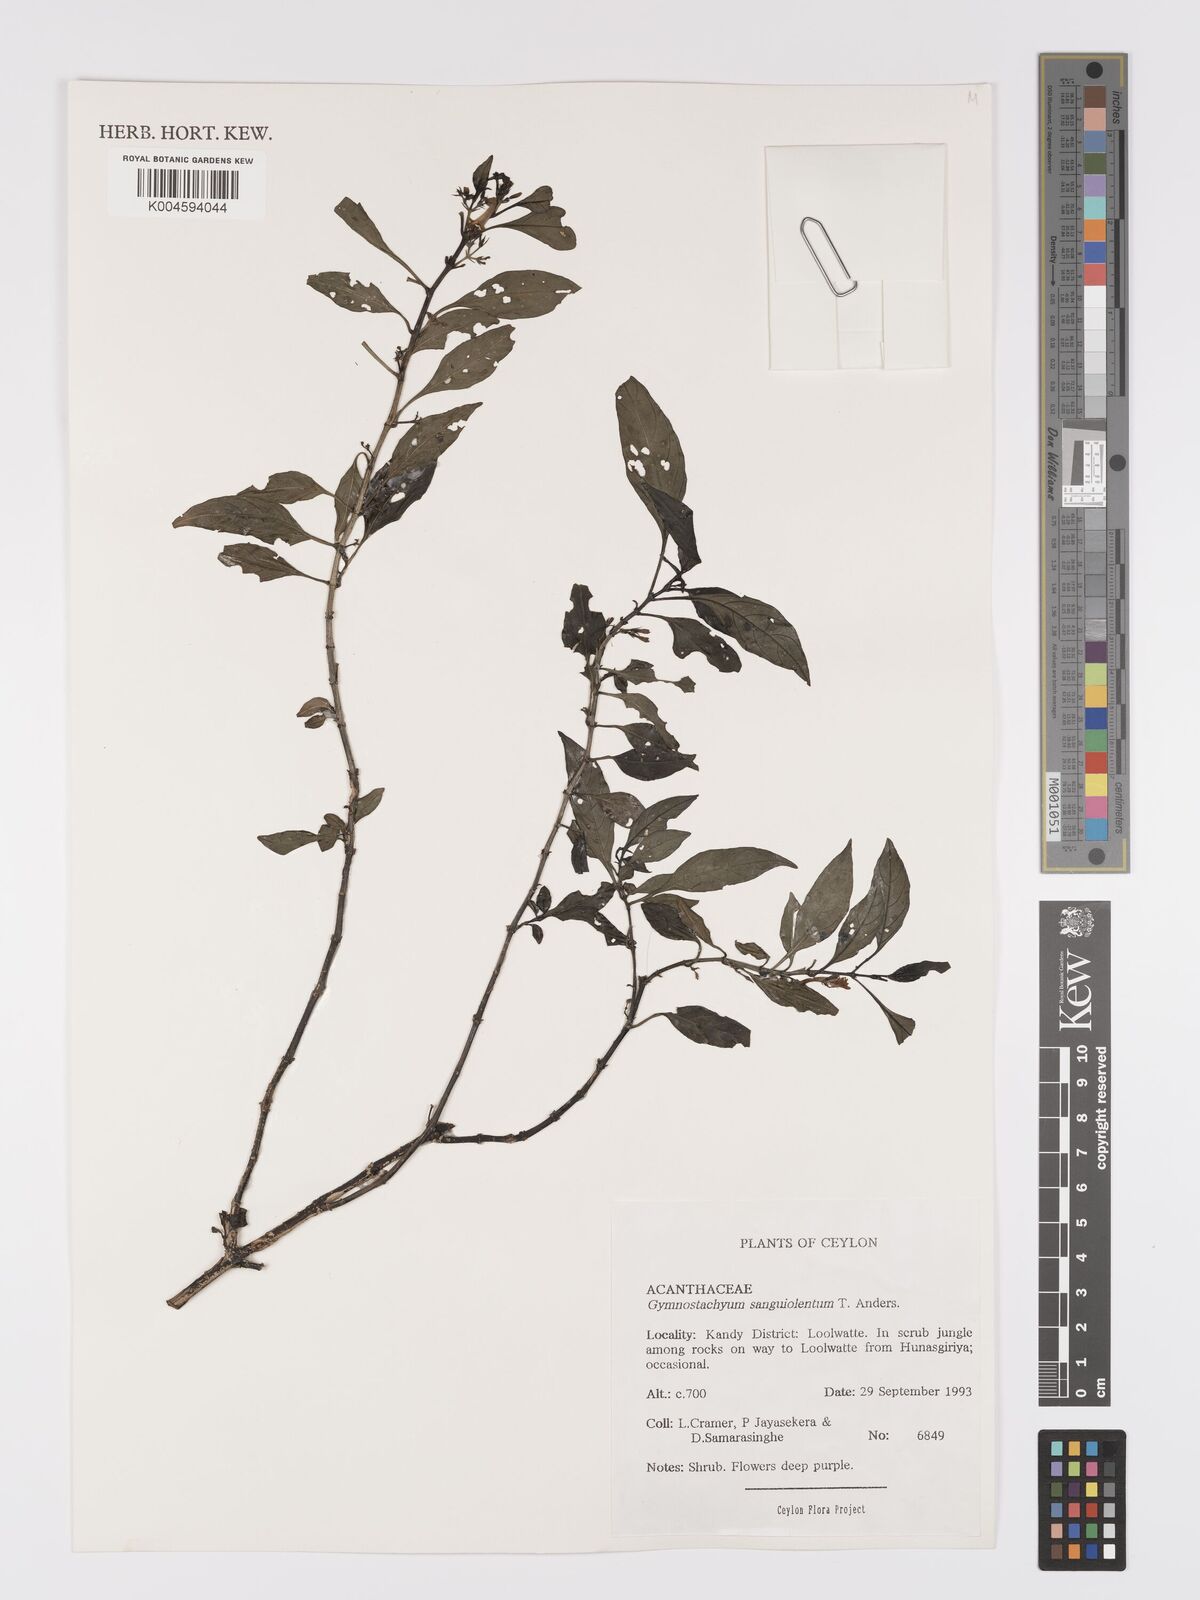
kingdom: Plantae
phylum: Tracheophyta
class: Magnoliopsida
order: Lamiales
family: Acanthaceae
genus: Gymnostachyum
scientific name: Gymnostachyum sanguinolentum
